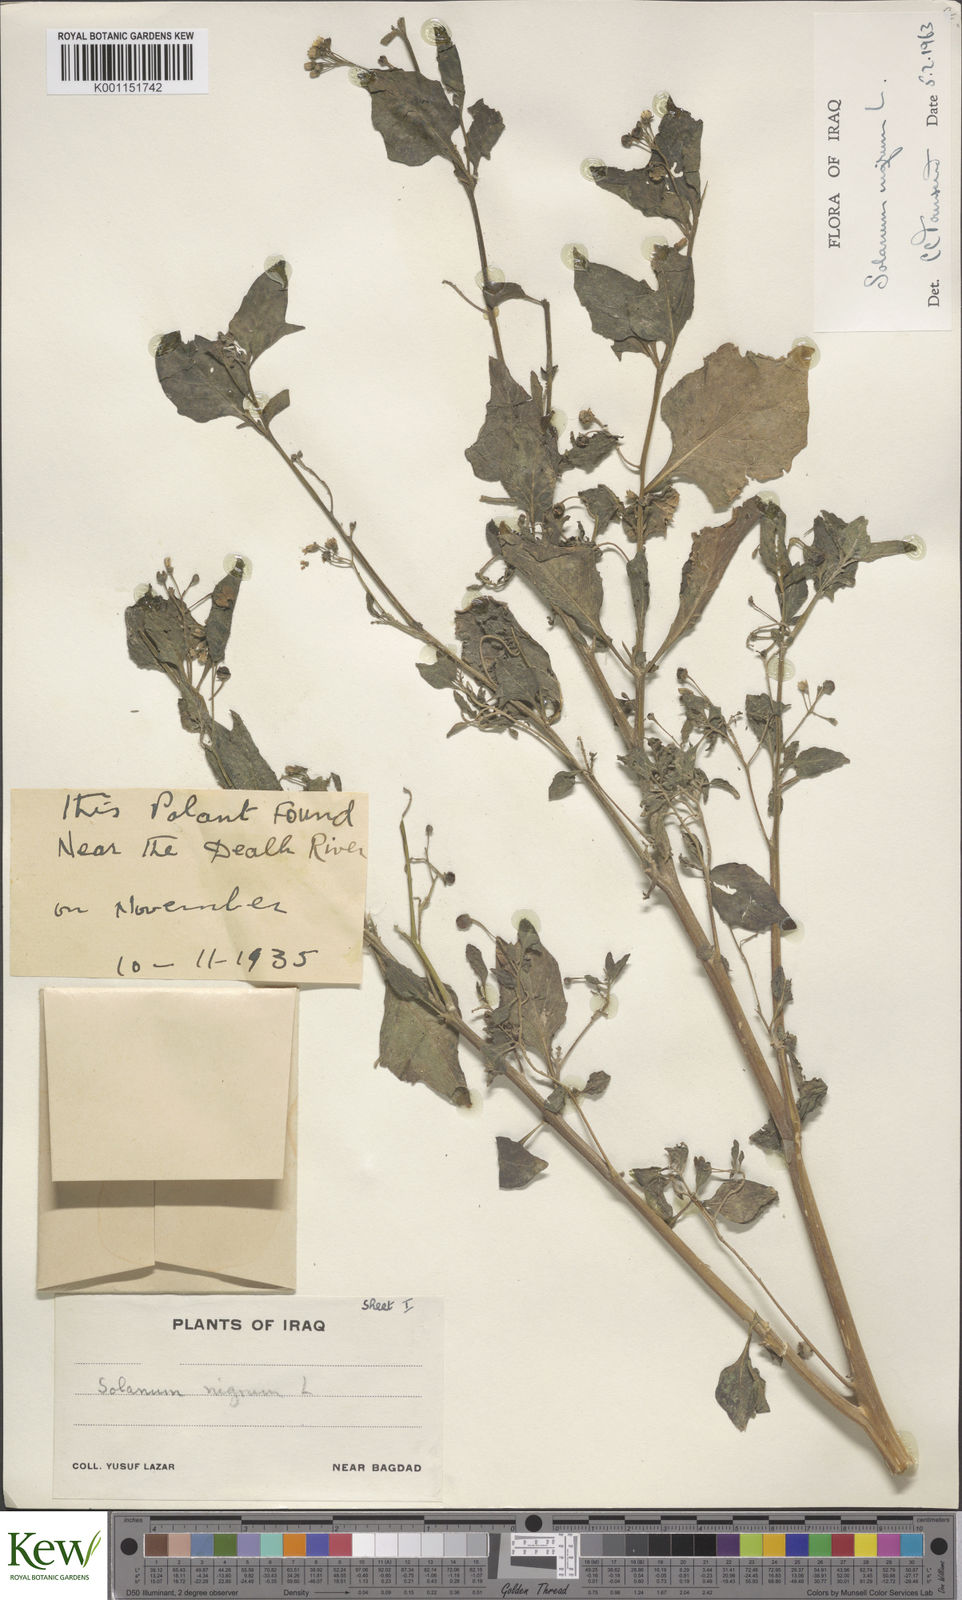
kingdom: Plantae
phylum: Tracheophyta
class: Magnoliopsida
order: Solanales
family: Solanaceae
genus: Solanum
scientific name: Solanum nigrum
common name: Black nightshade
